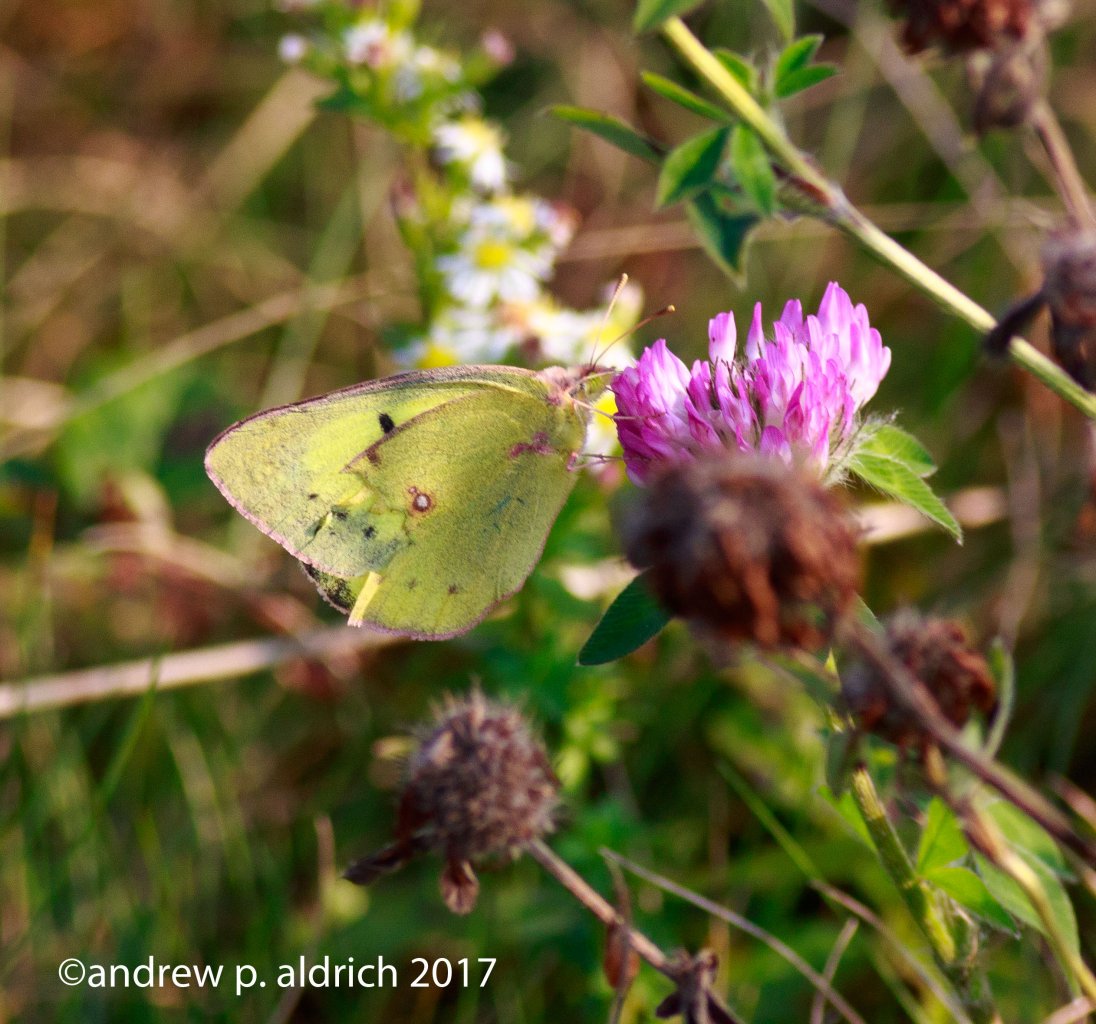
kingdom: Animalia
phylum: Arthropoda
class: Insecta
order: Lepidoptera
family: Pieridae
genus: Colias
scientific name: Colias philodice
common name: Clouded Sulphur
